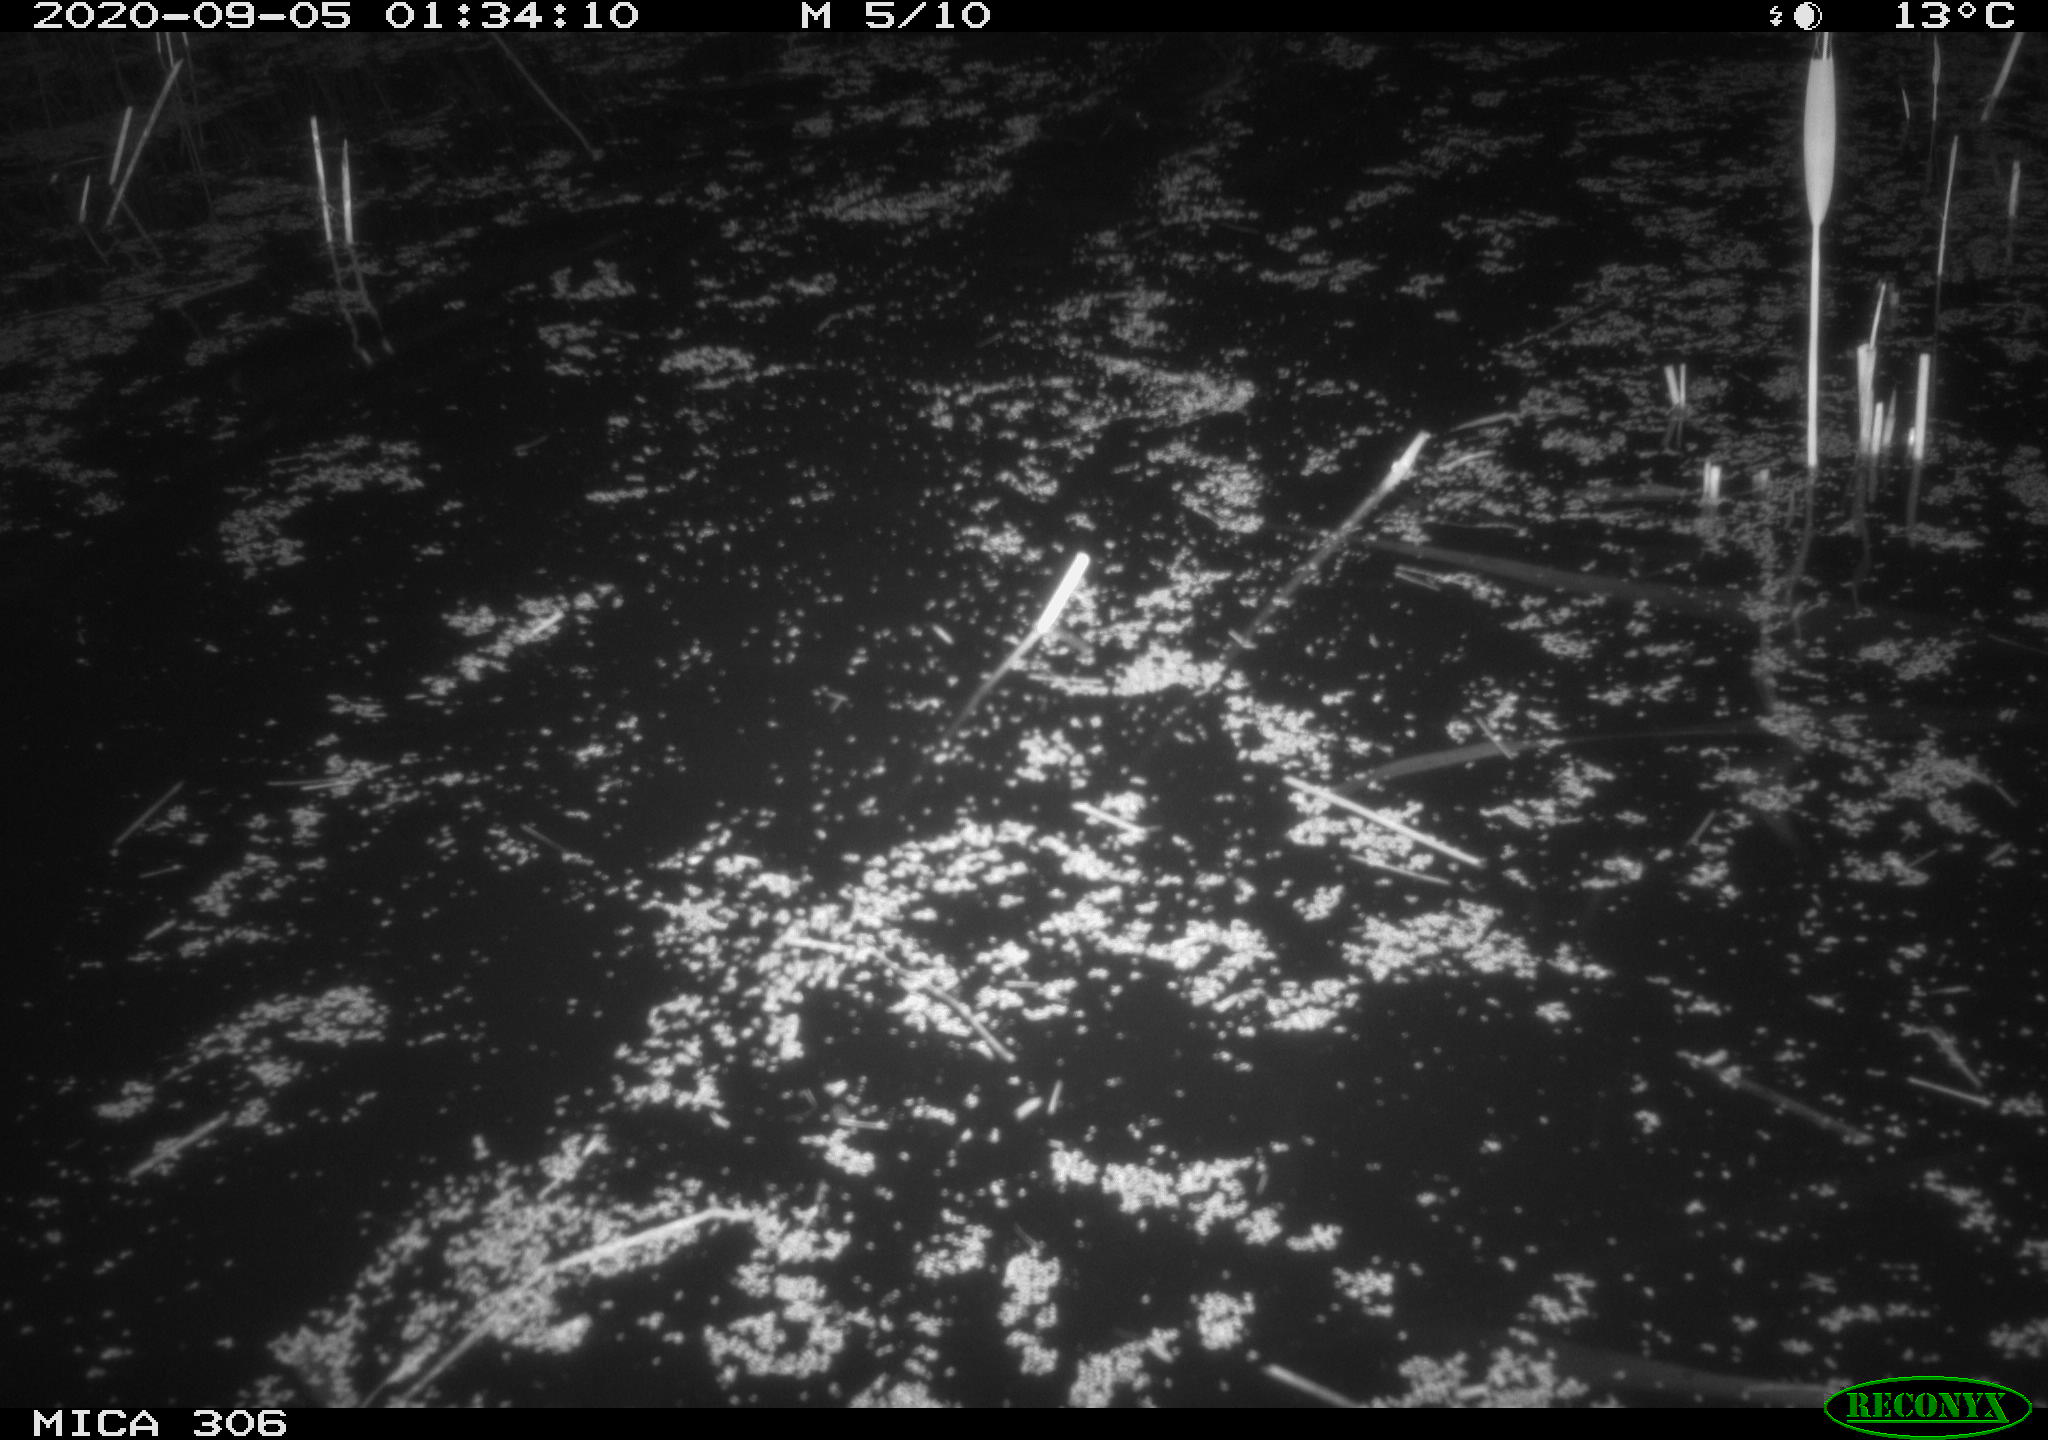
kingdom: Animalia
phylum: Chordata
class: Mammalia
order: Rodentia
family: Cricetidae
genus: Ondatra
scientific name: Ondatra zibethicus
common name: Muskrat
